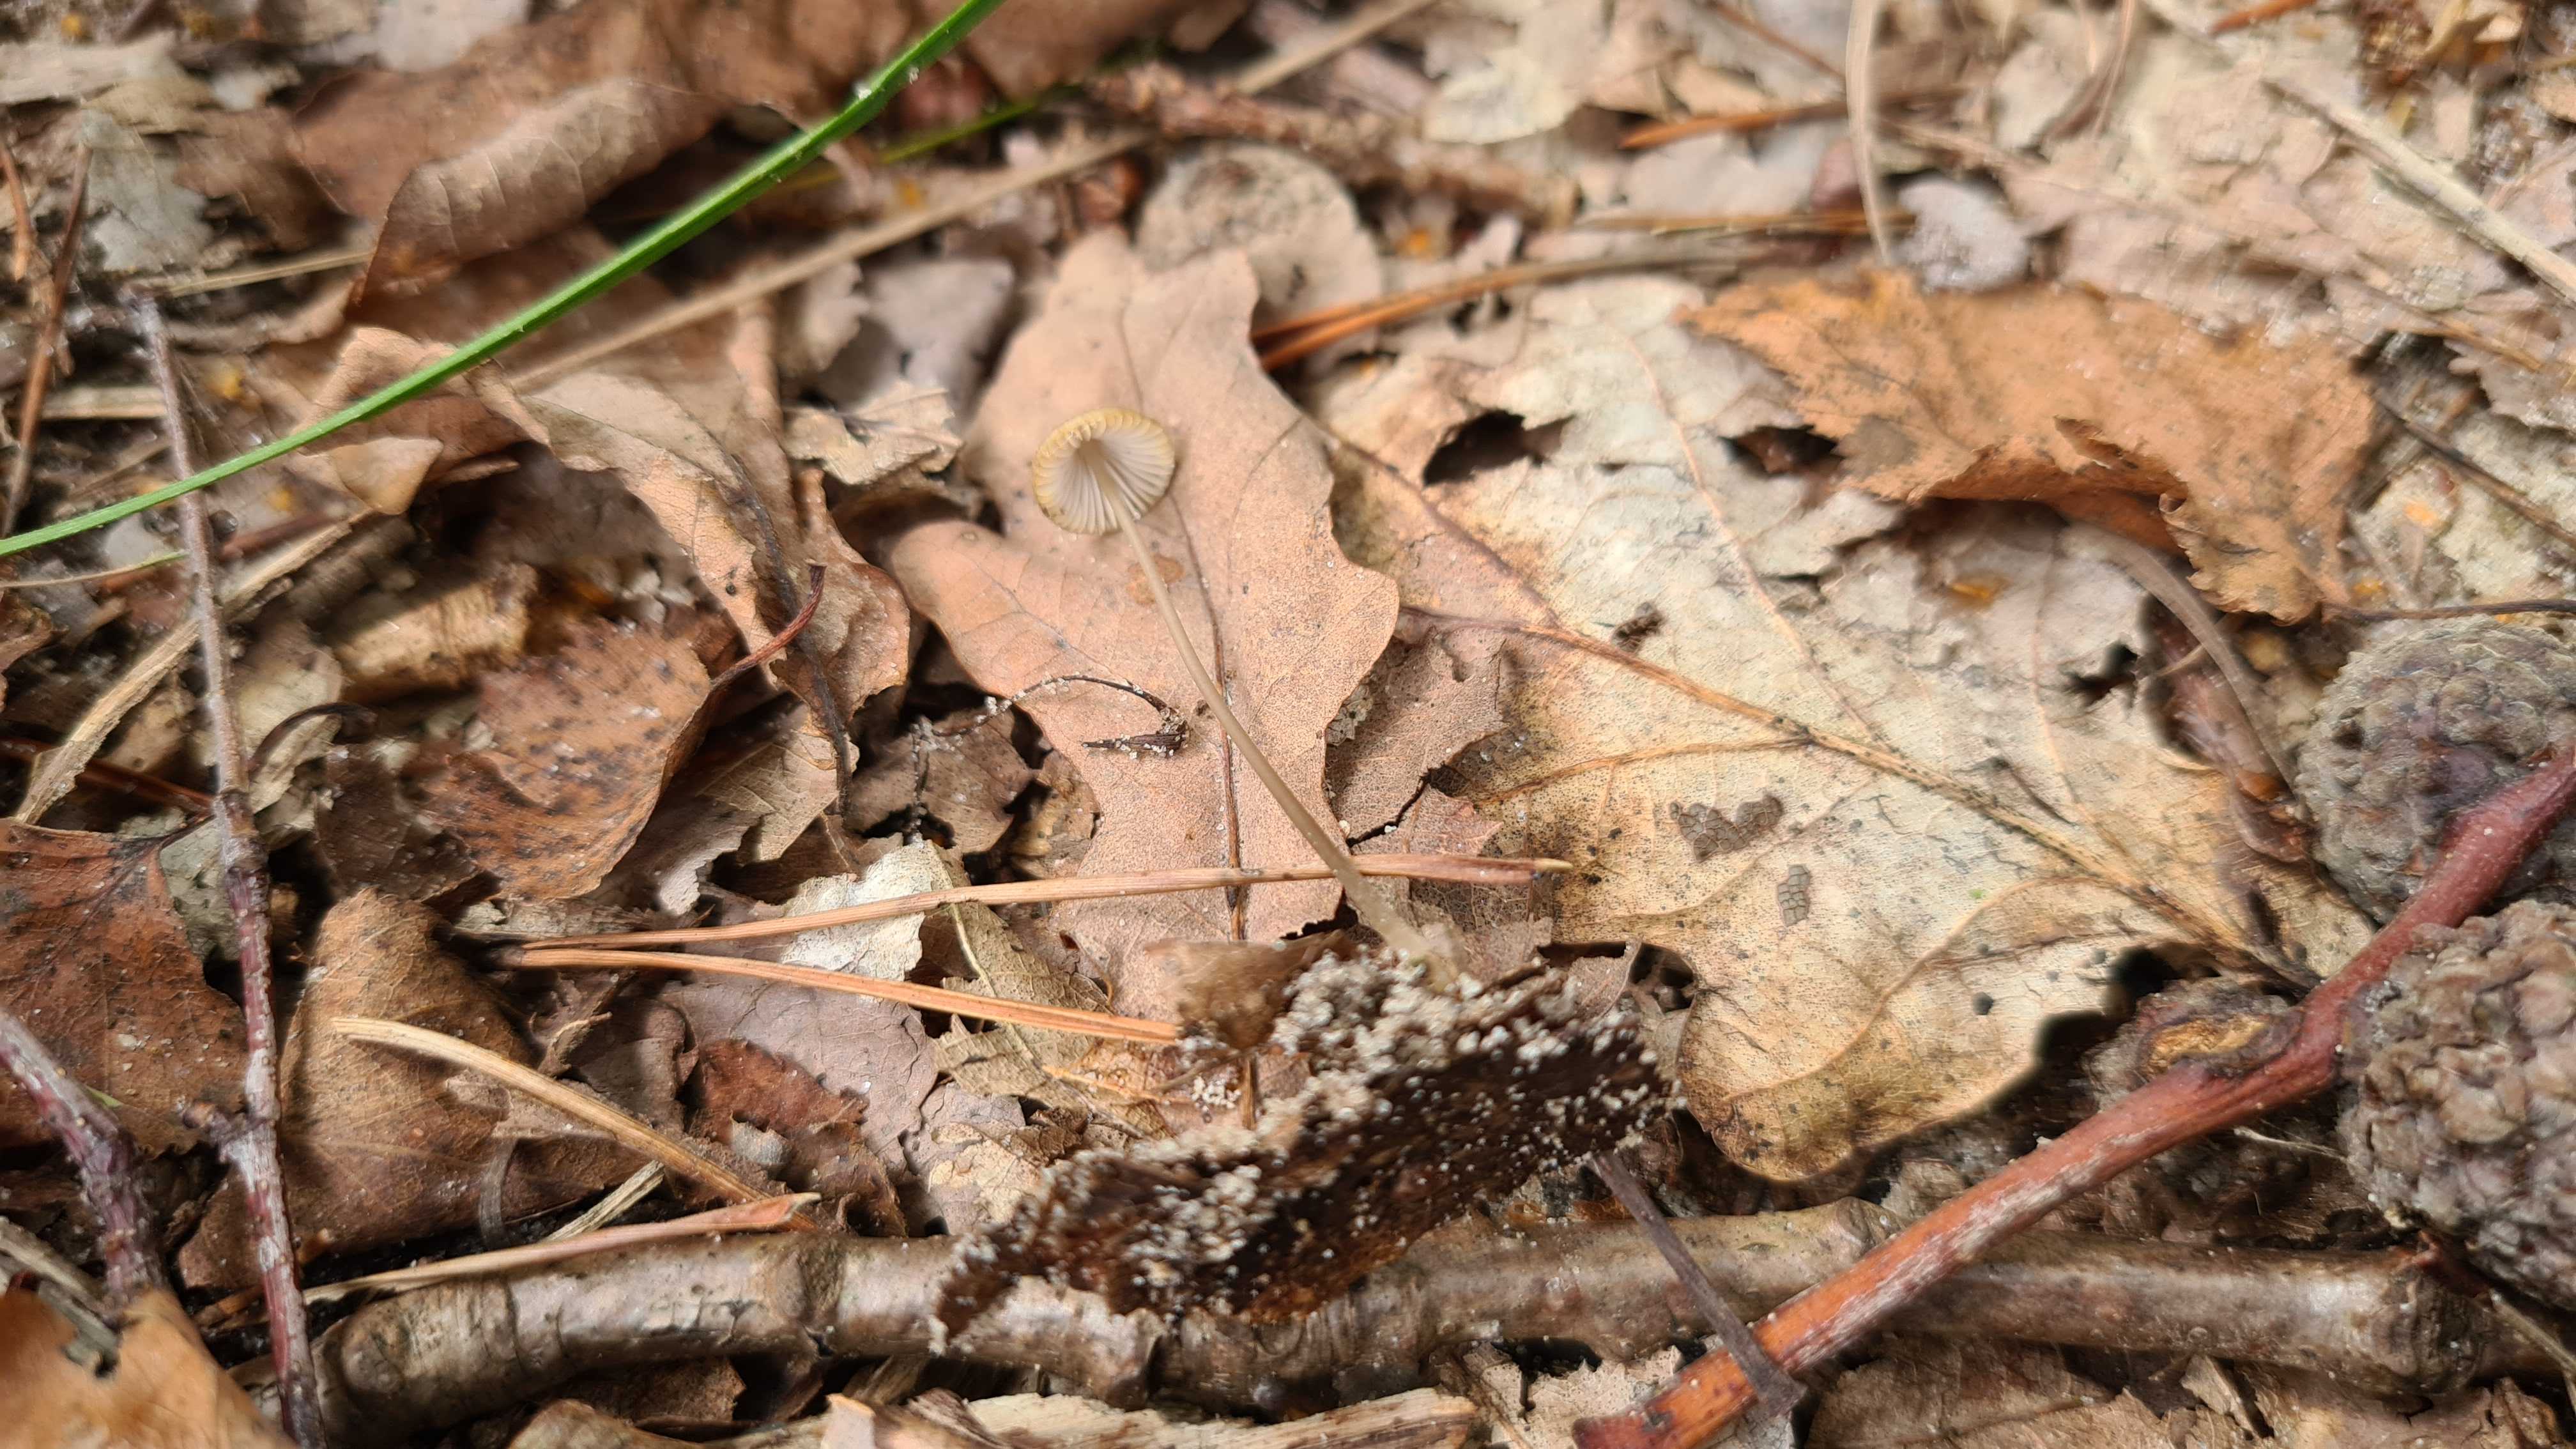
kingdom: Fungi
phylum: Basidiomycota
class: Agaricomycetes
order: Agaricales
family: Mycenaceae
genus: Mycena
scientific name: Mycena
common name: huesvamp
